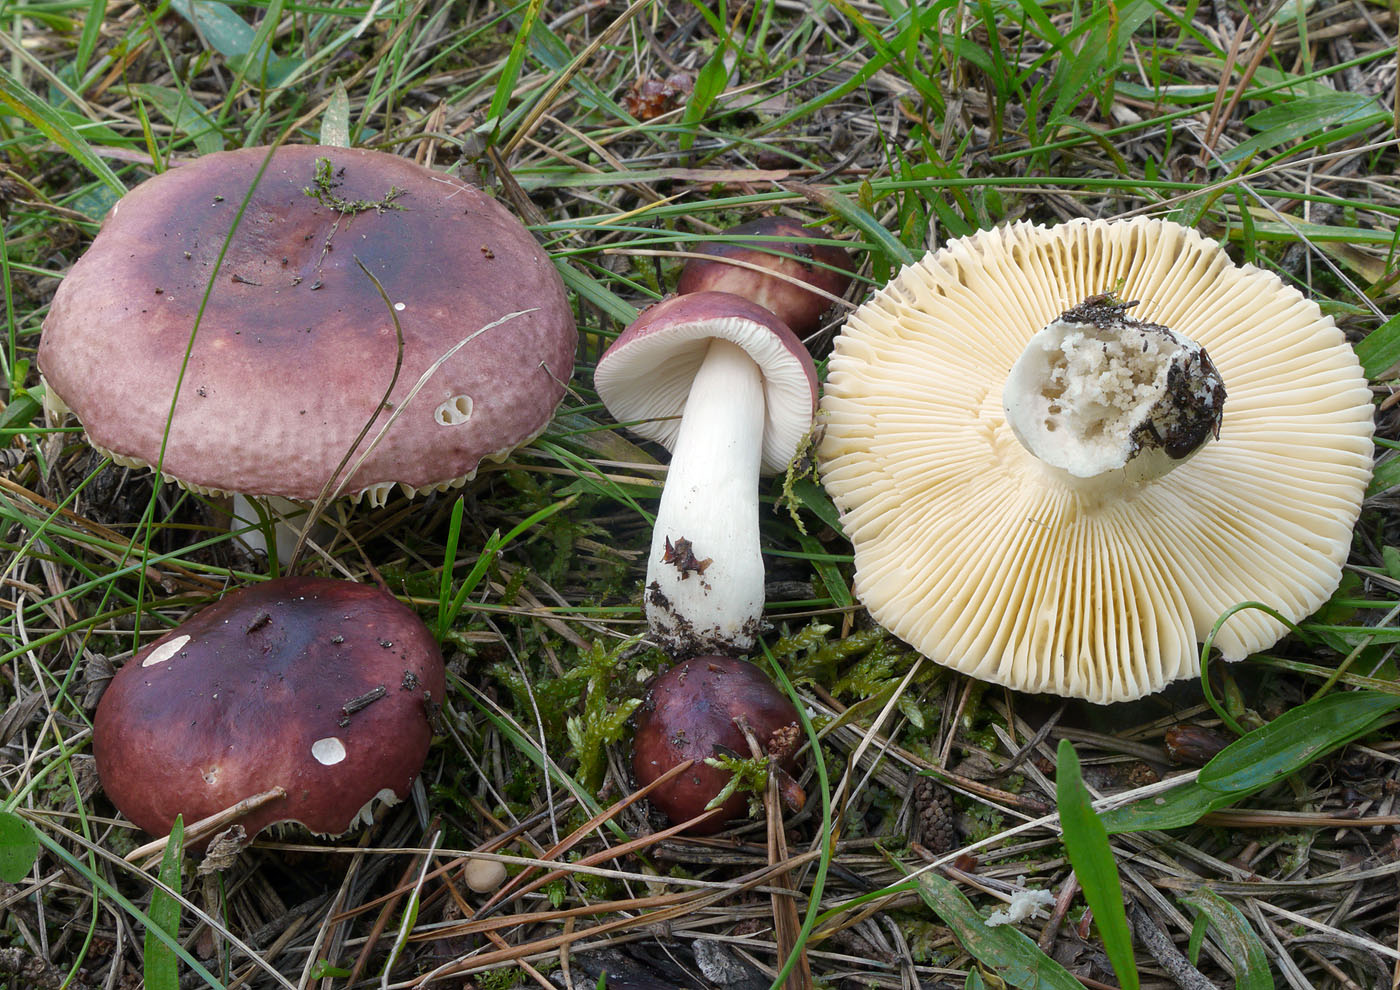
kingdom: Fungi
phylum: Basidiomycota
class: Agaricomycetes
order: Russulales
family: Russulaceae
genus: Russula
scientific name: Russula cessans
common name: fyrre-skørhat
